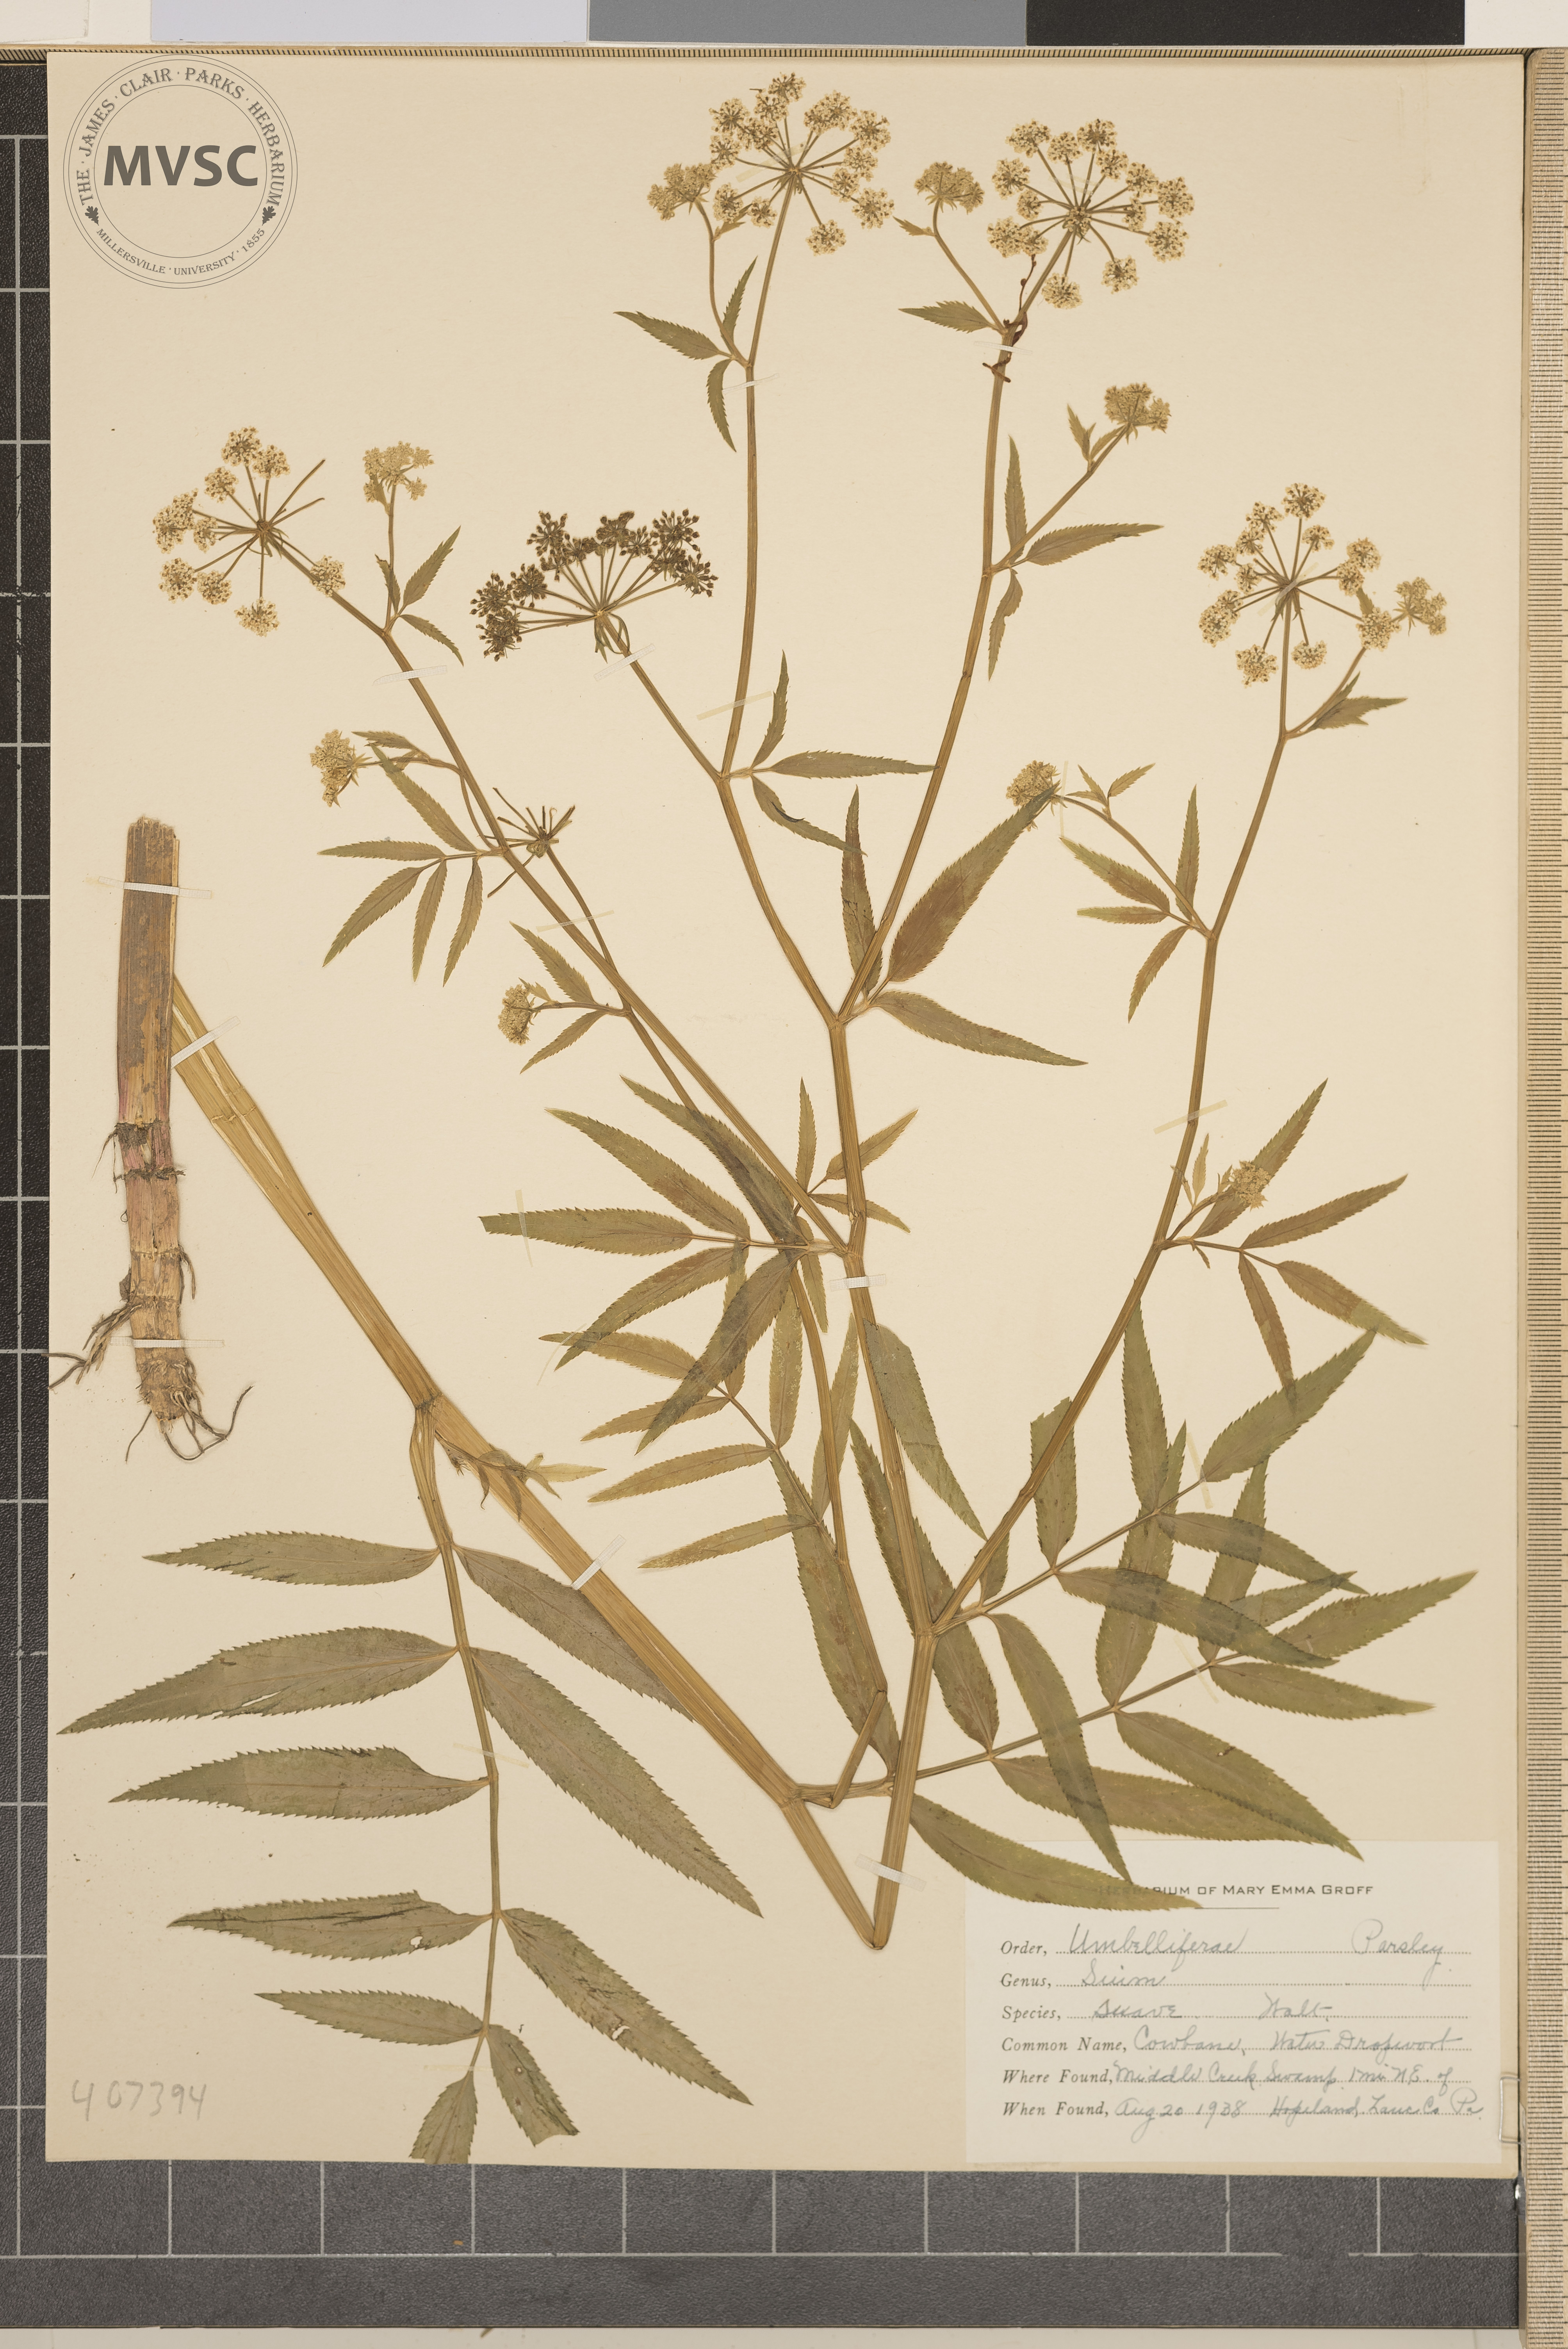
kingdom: Plantae
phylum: Tracheophyta
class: Magnoliopsida
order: Apiales
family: Apiaceae
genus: Sium
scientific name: Sium suave
